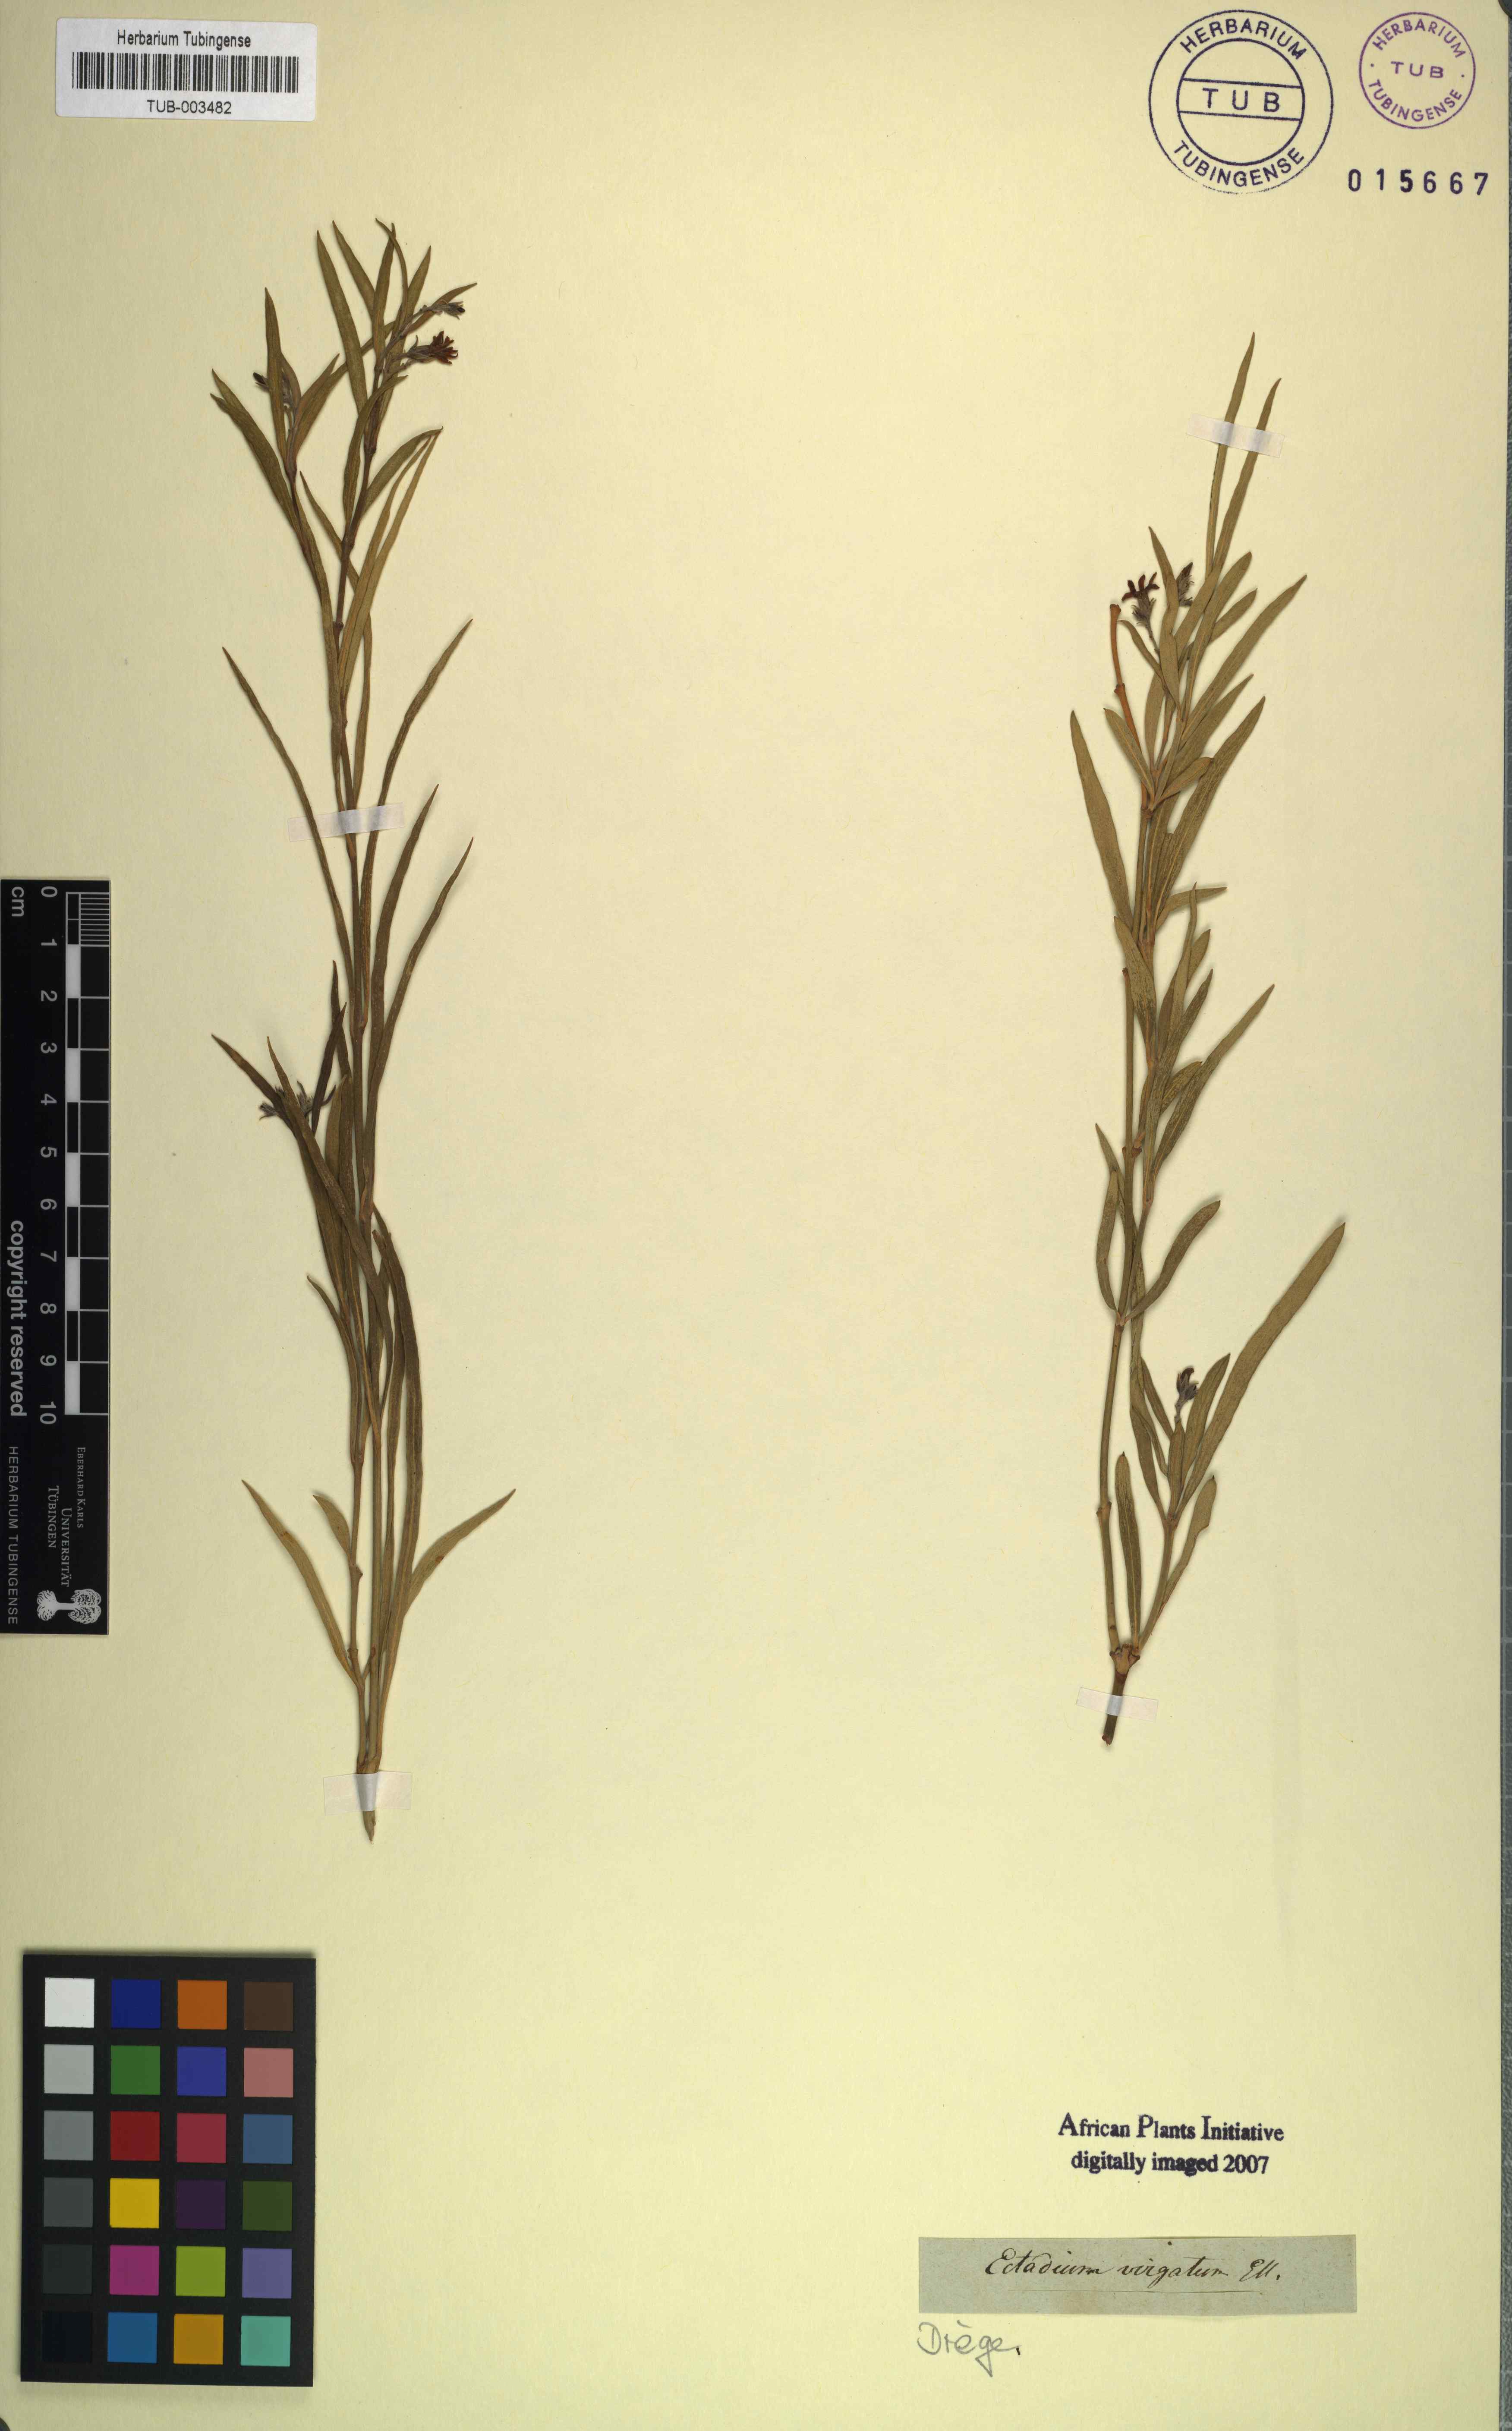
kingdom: Plantae
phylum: Tracheophyta
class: Magnoliopsida
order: Gentianales
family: Apocynaceae
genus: Ectadium
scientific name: Ectadium virgatum
